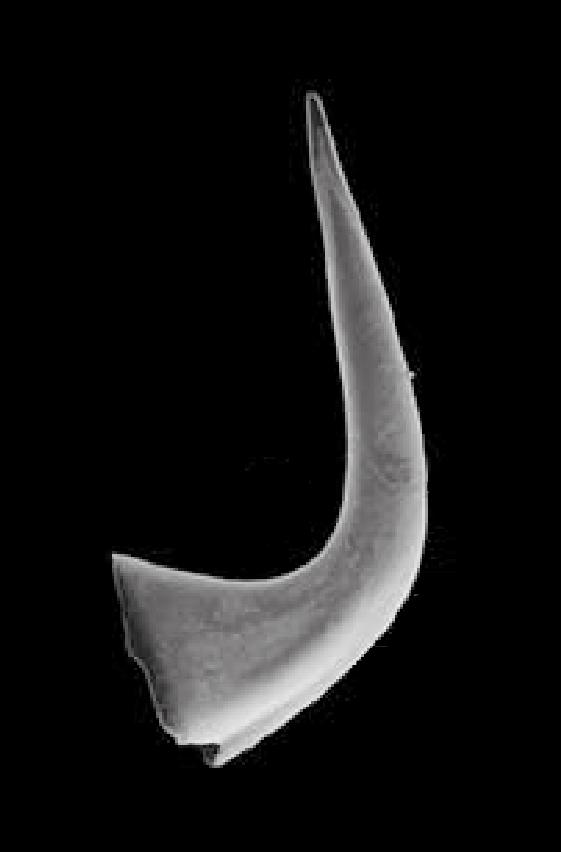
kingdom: Animalia
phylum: Chordata
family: Protopanderodontidae
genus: Variabiloconus
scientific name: Variabiloconus
